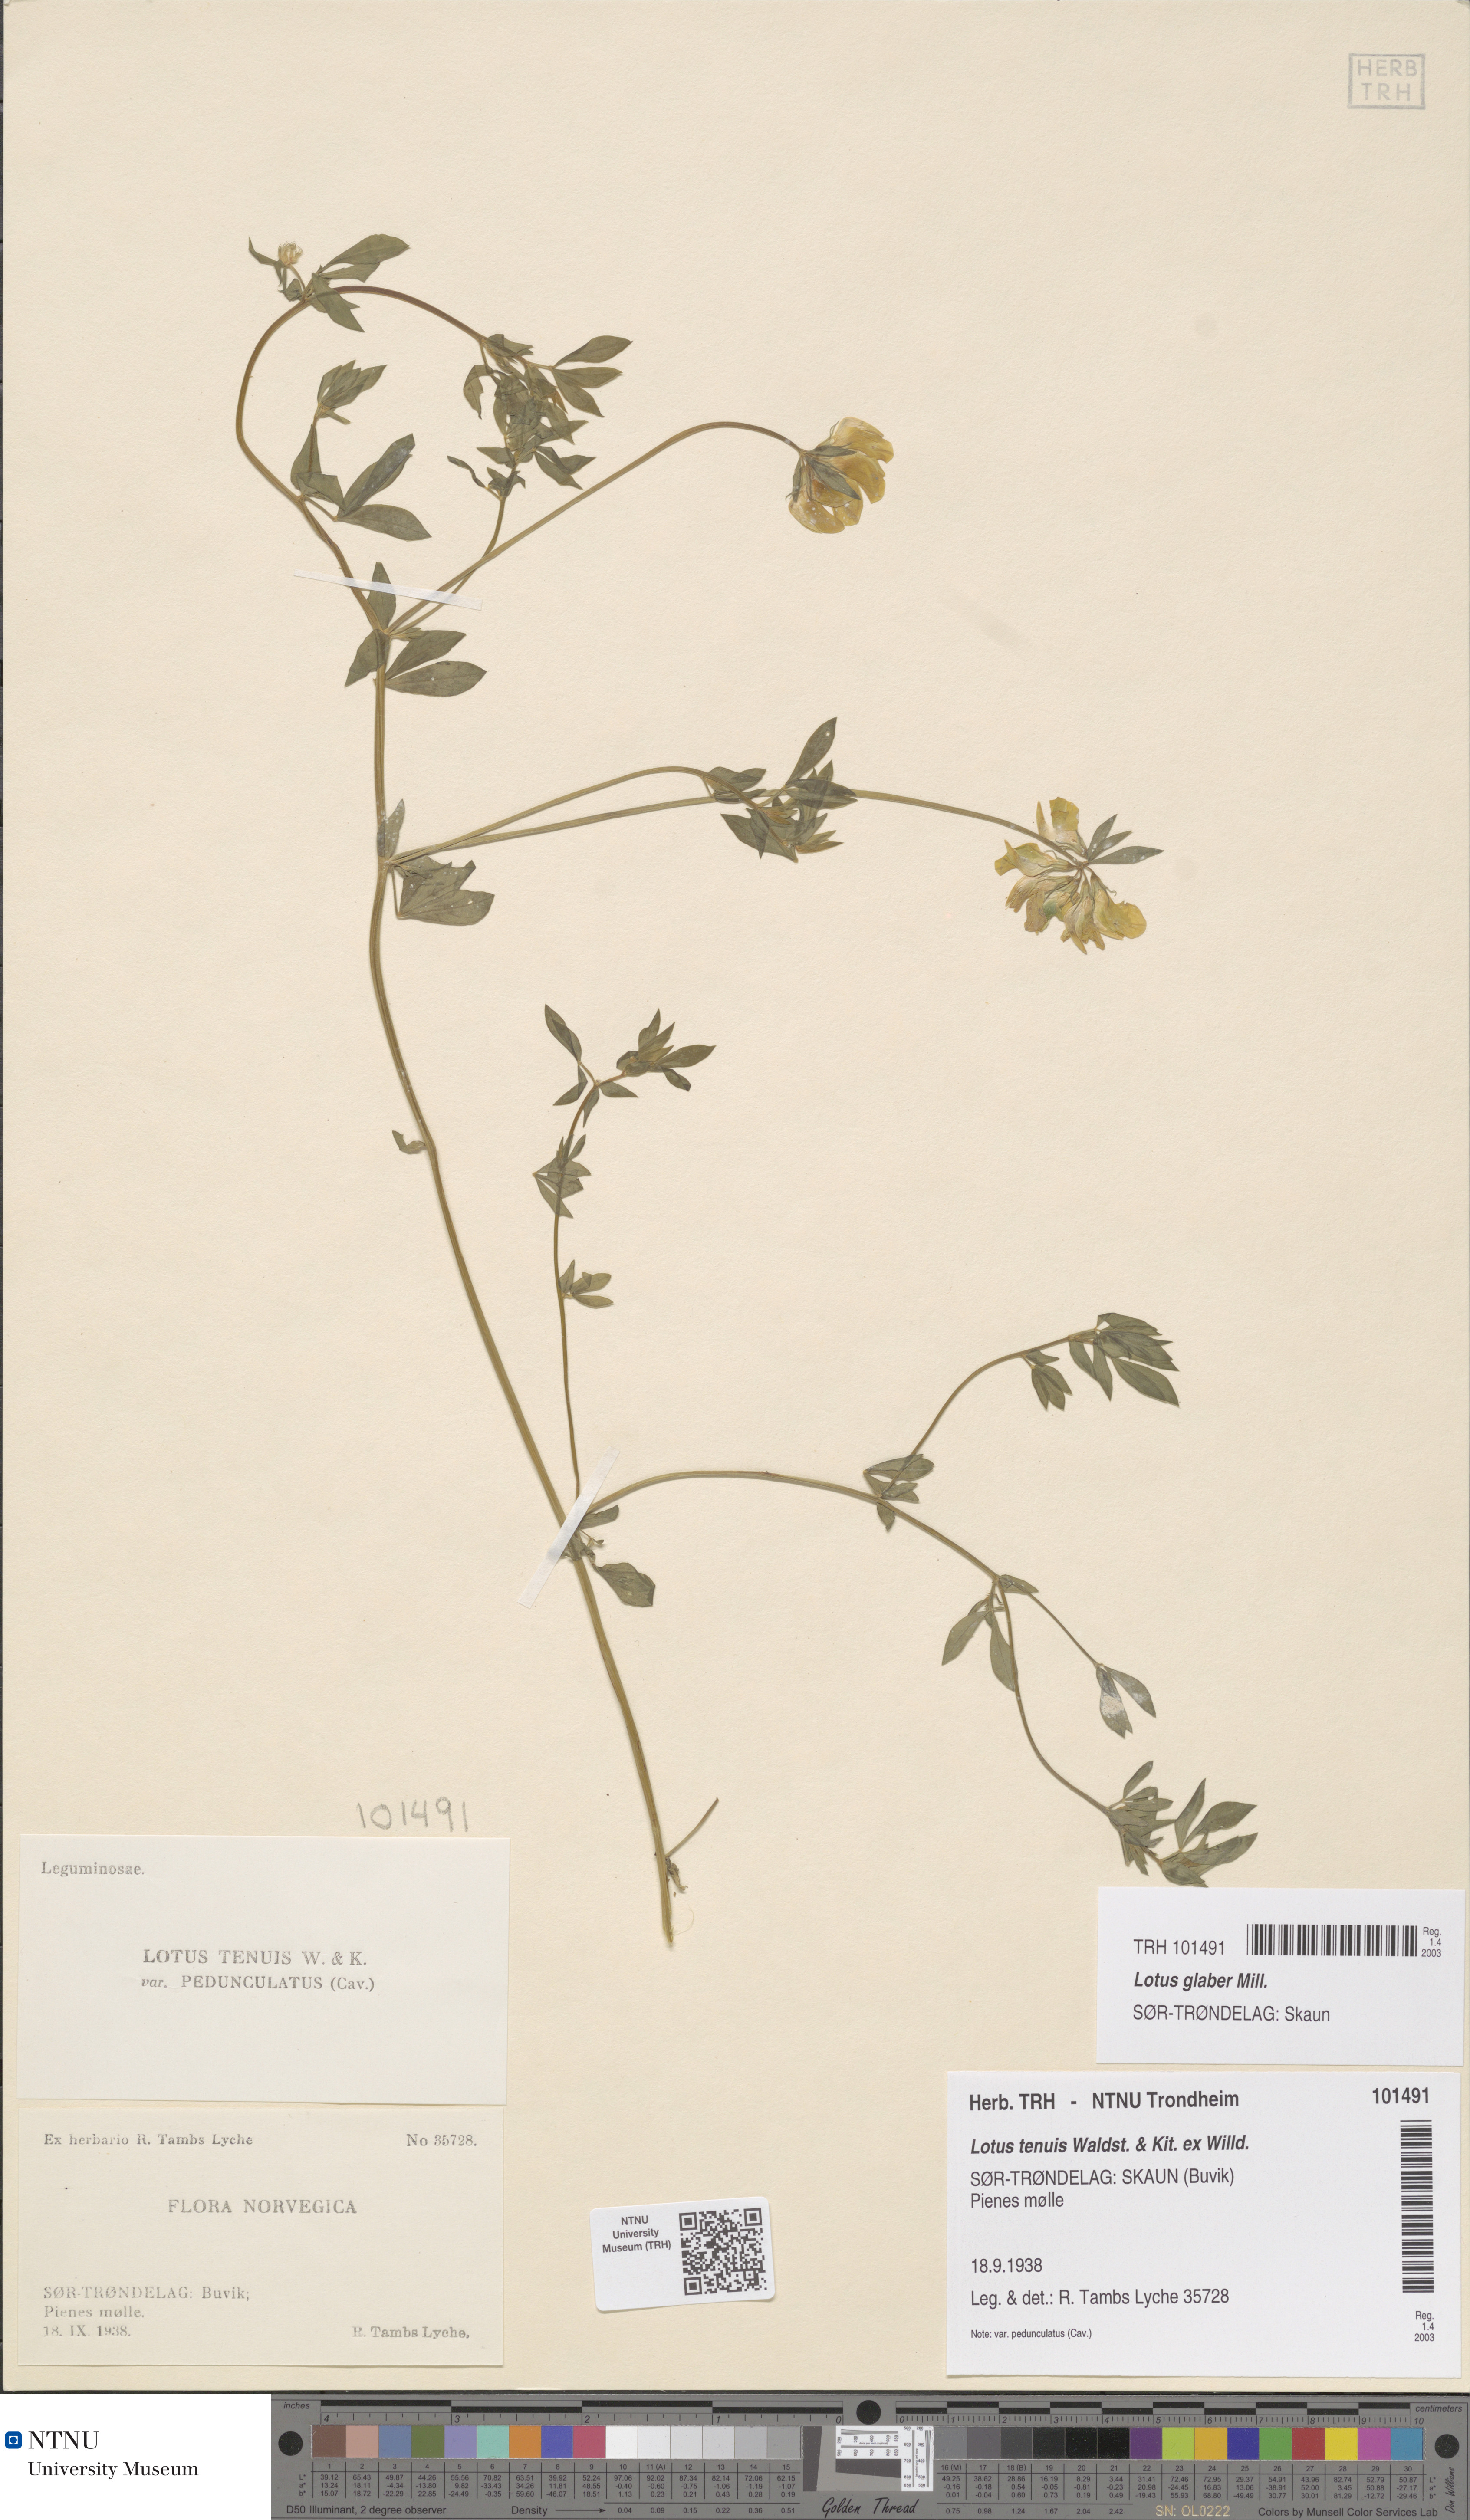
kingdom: Plantae
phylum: Tracheophyta
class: Magnoliopsida
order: Fabales
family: Fabaceae
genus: Lotus
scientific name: Lotus tenuis
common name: Narrow-leaved bird's-foot-trefoil
